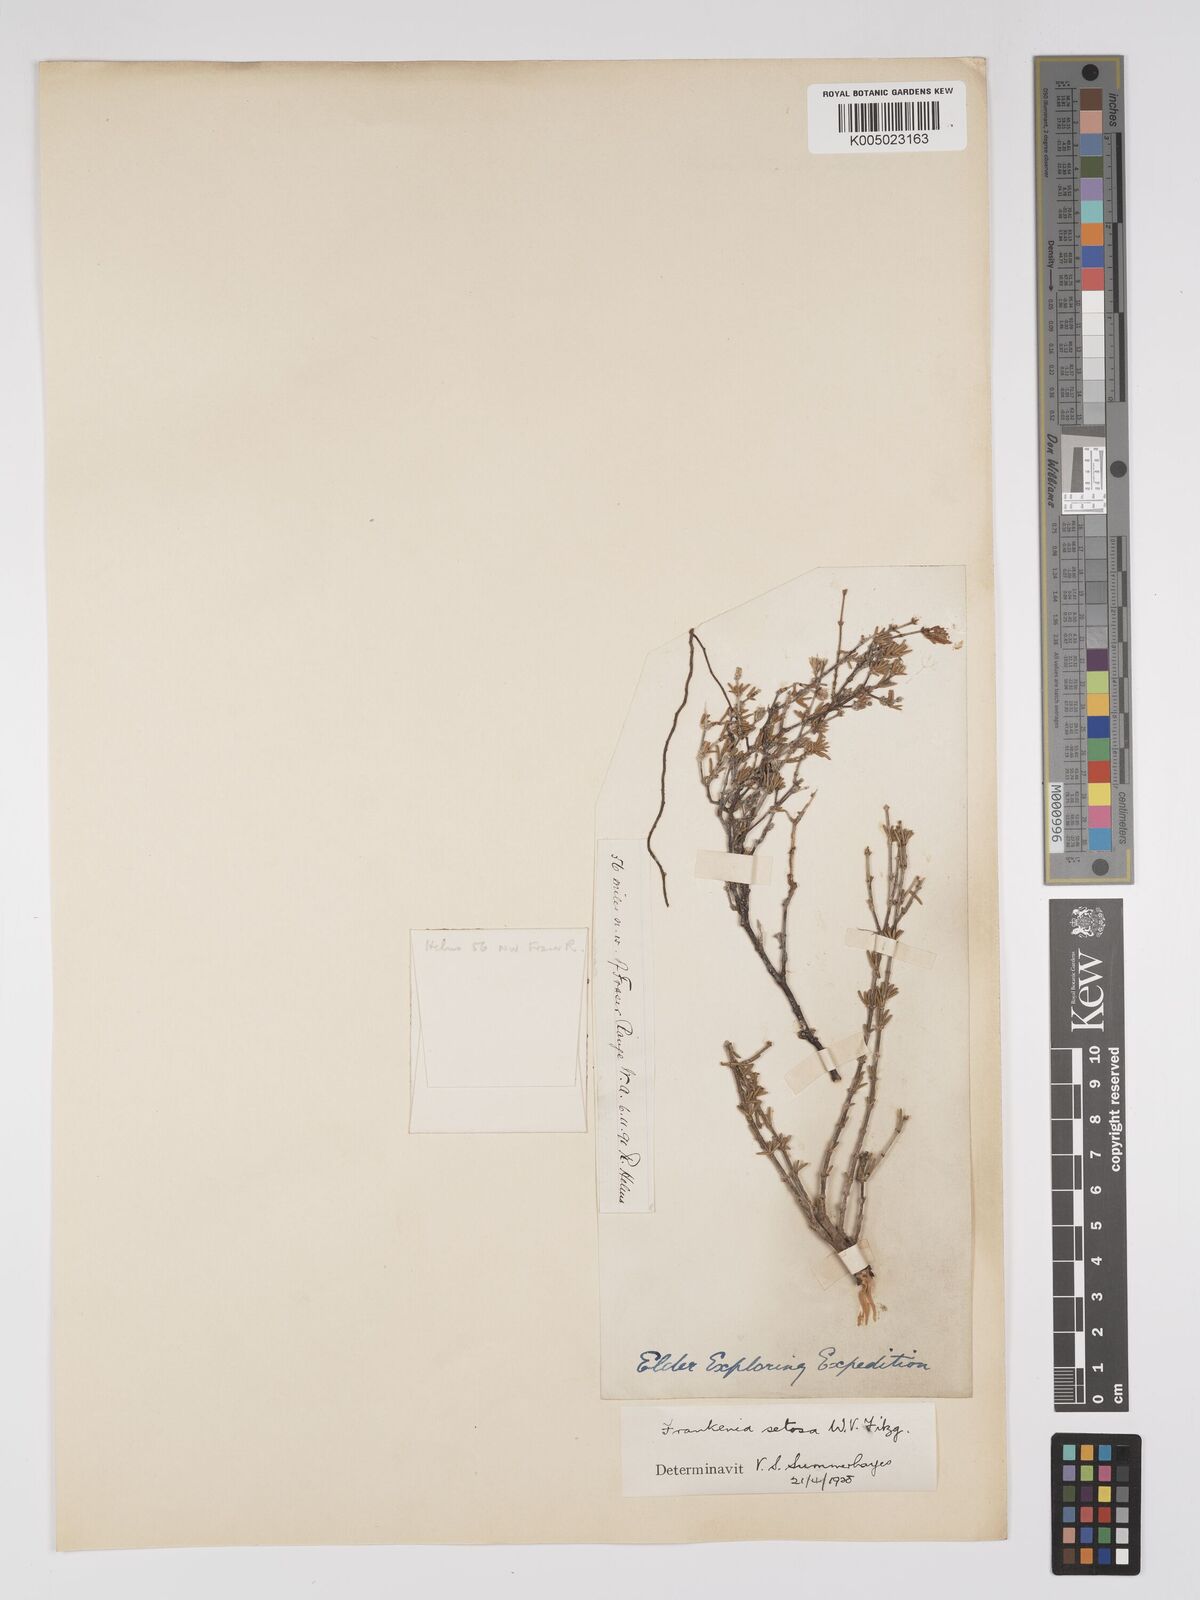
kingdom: Plantae
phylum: Tracheophyta
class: Magnoliopsida
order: Caryophyllales
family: Frankeniaceae
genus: Frankenia
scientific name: Frankenia setosa
